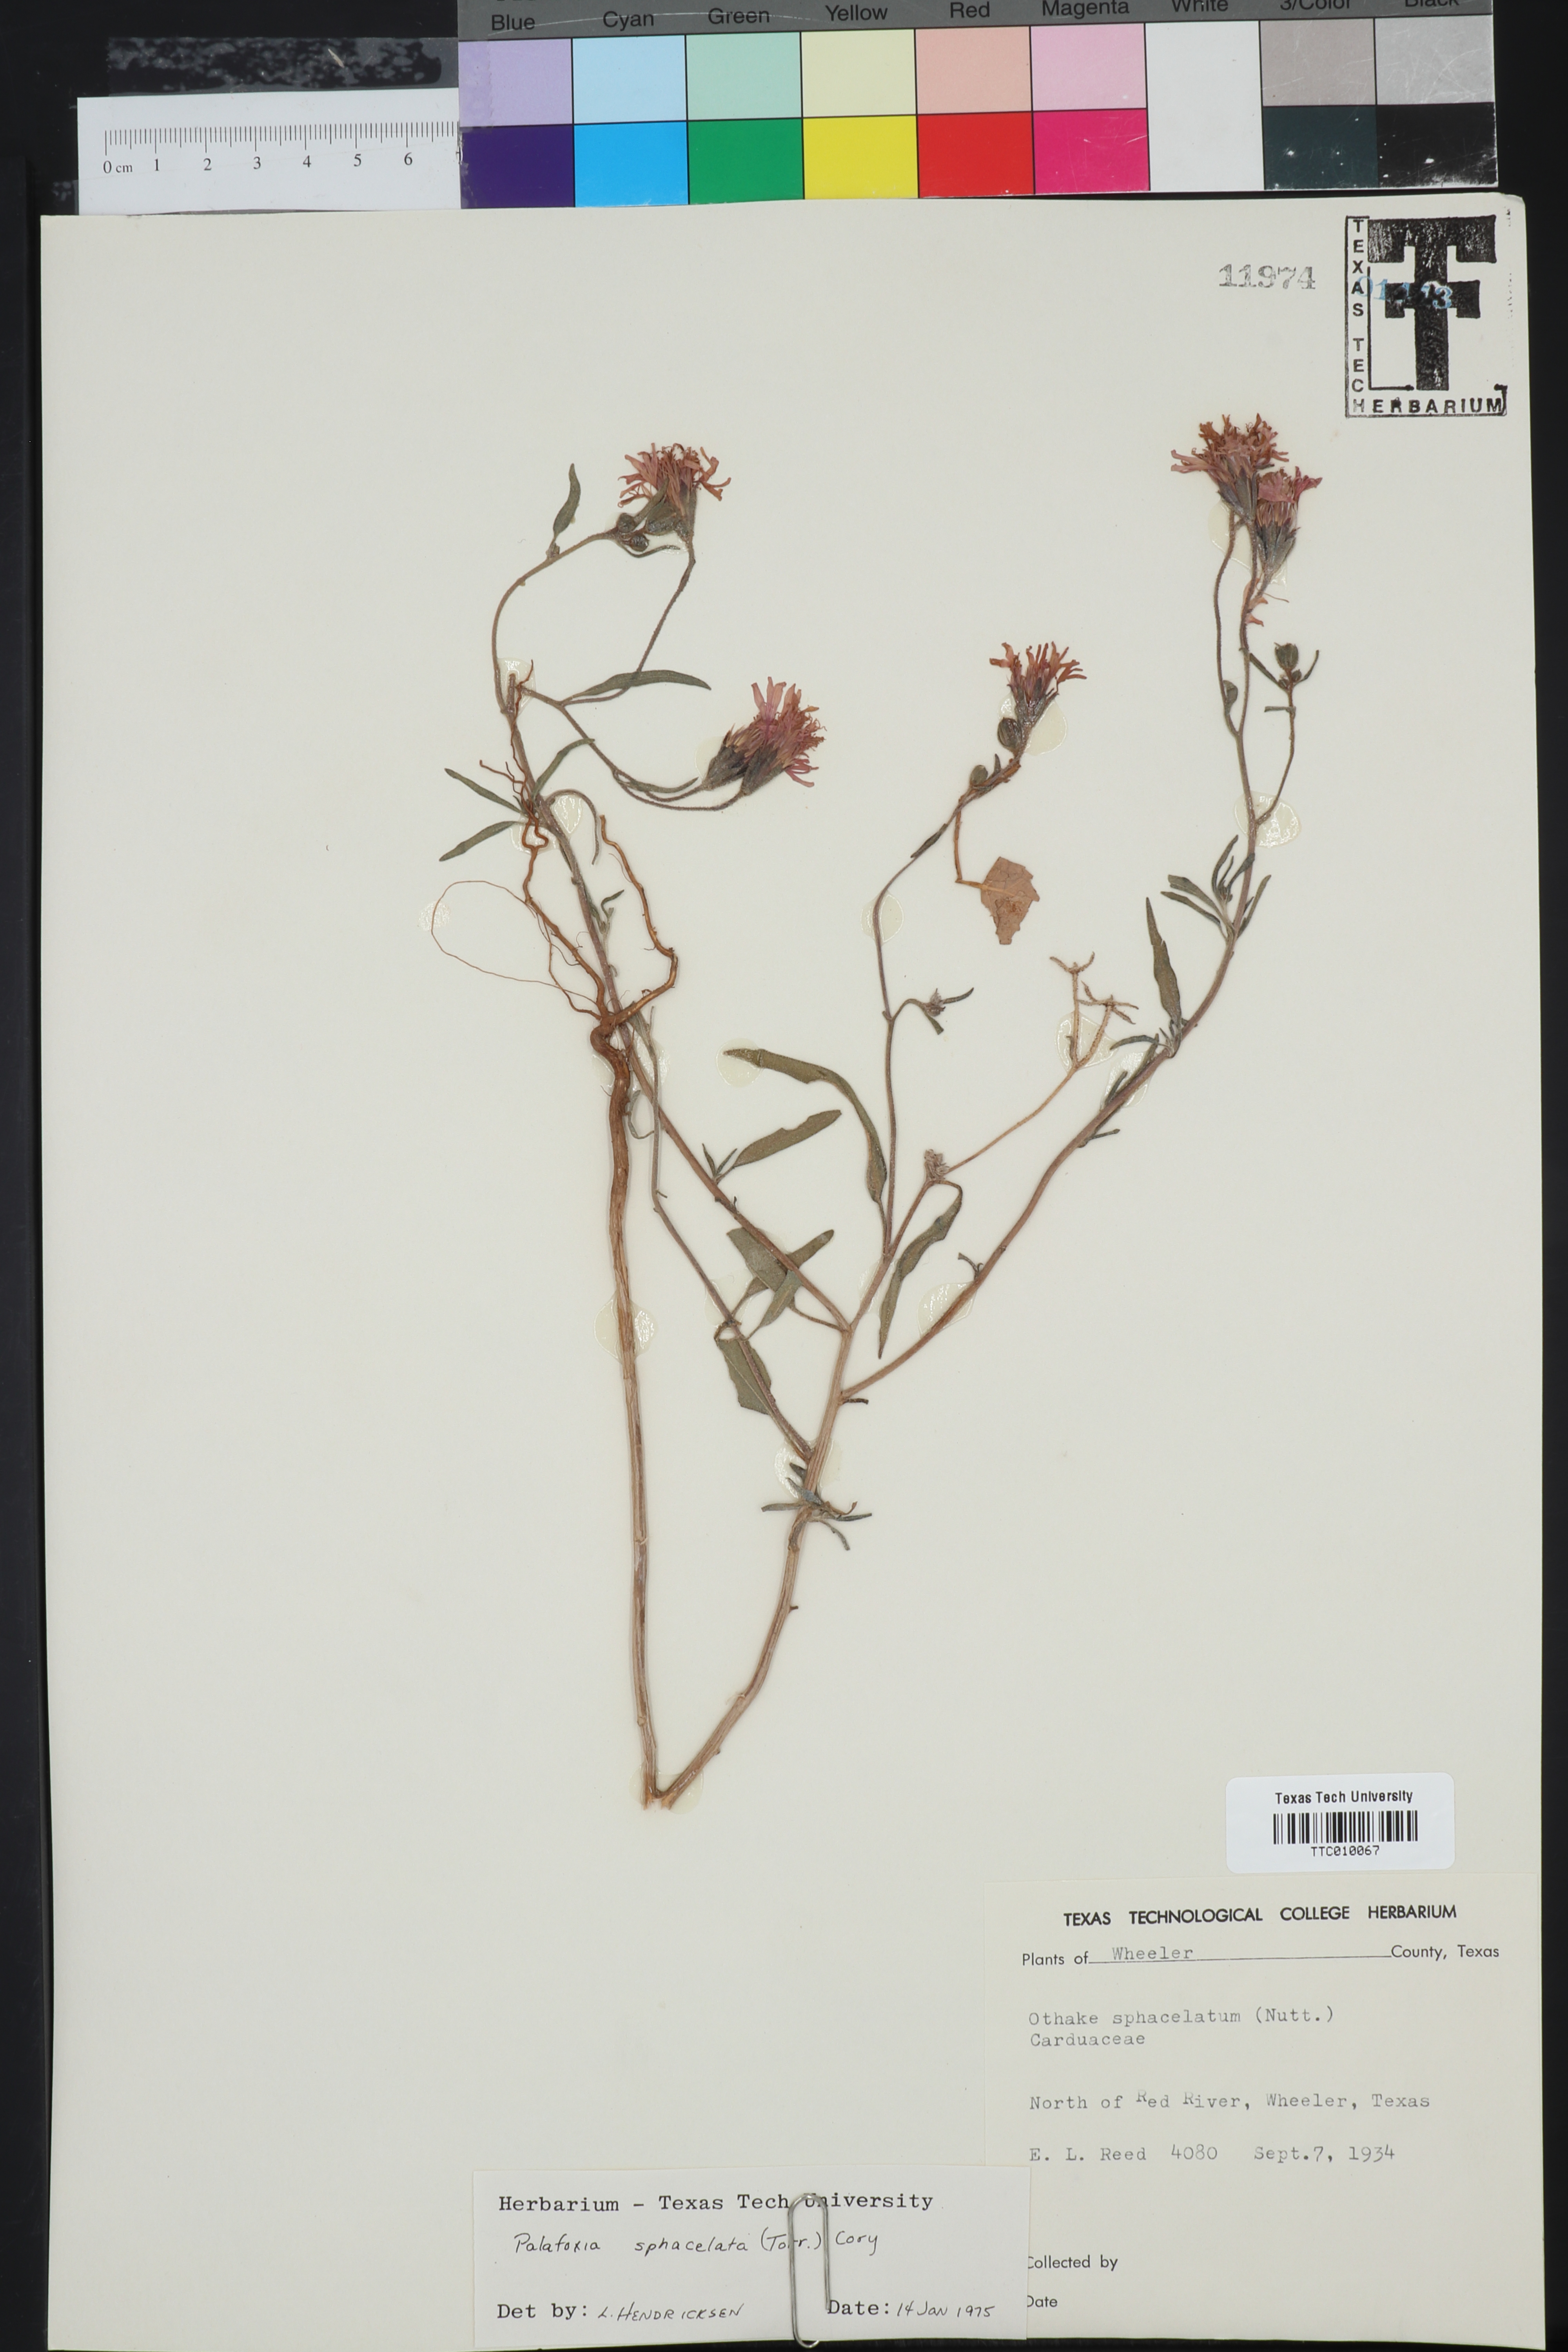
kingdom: Plantae
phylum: Tracheophyta
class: Magnoliopsida
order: Asterales
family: Asteraceae
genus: Palafoxia
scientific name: Palafoxia sphacelata
